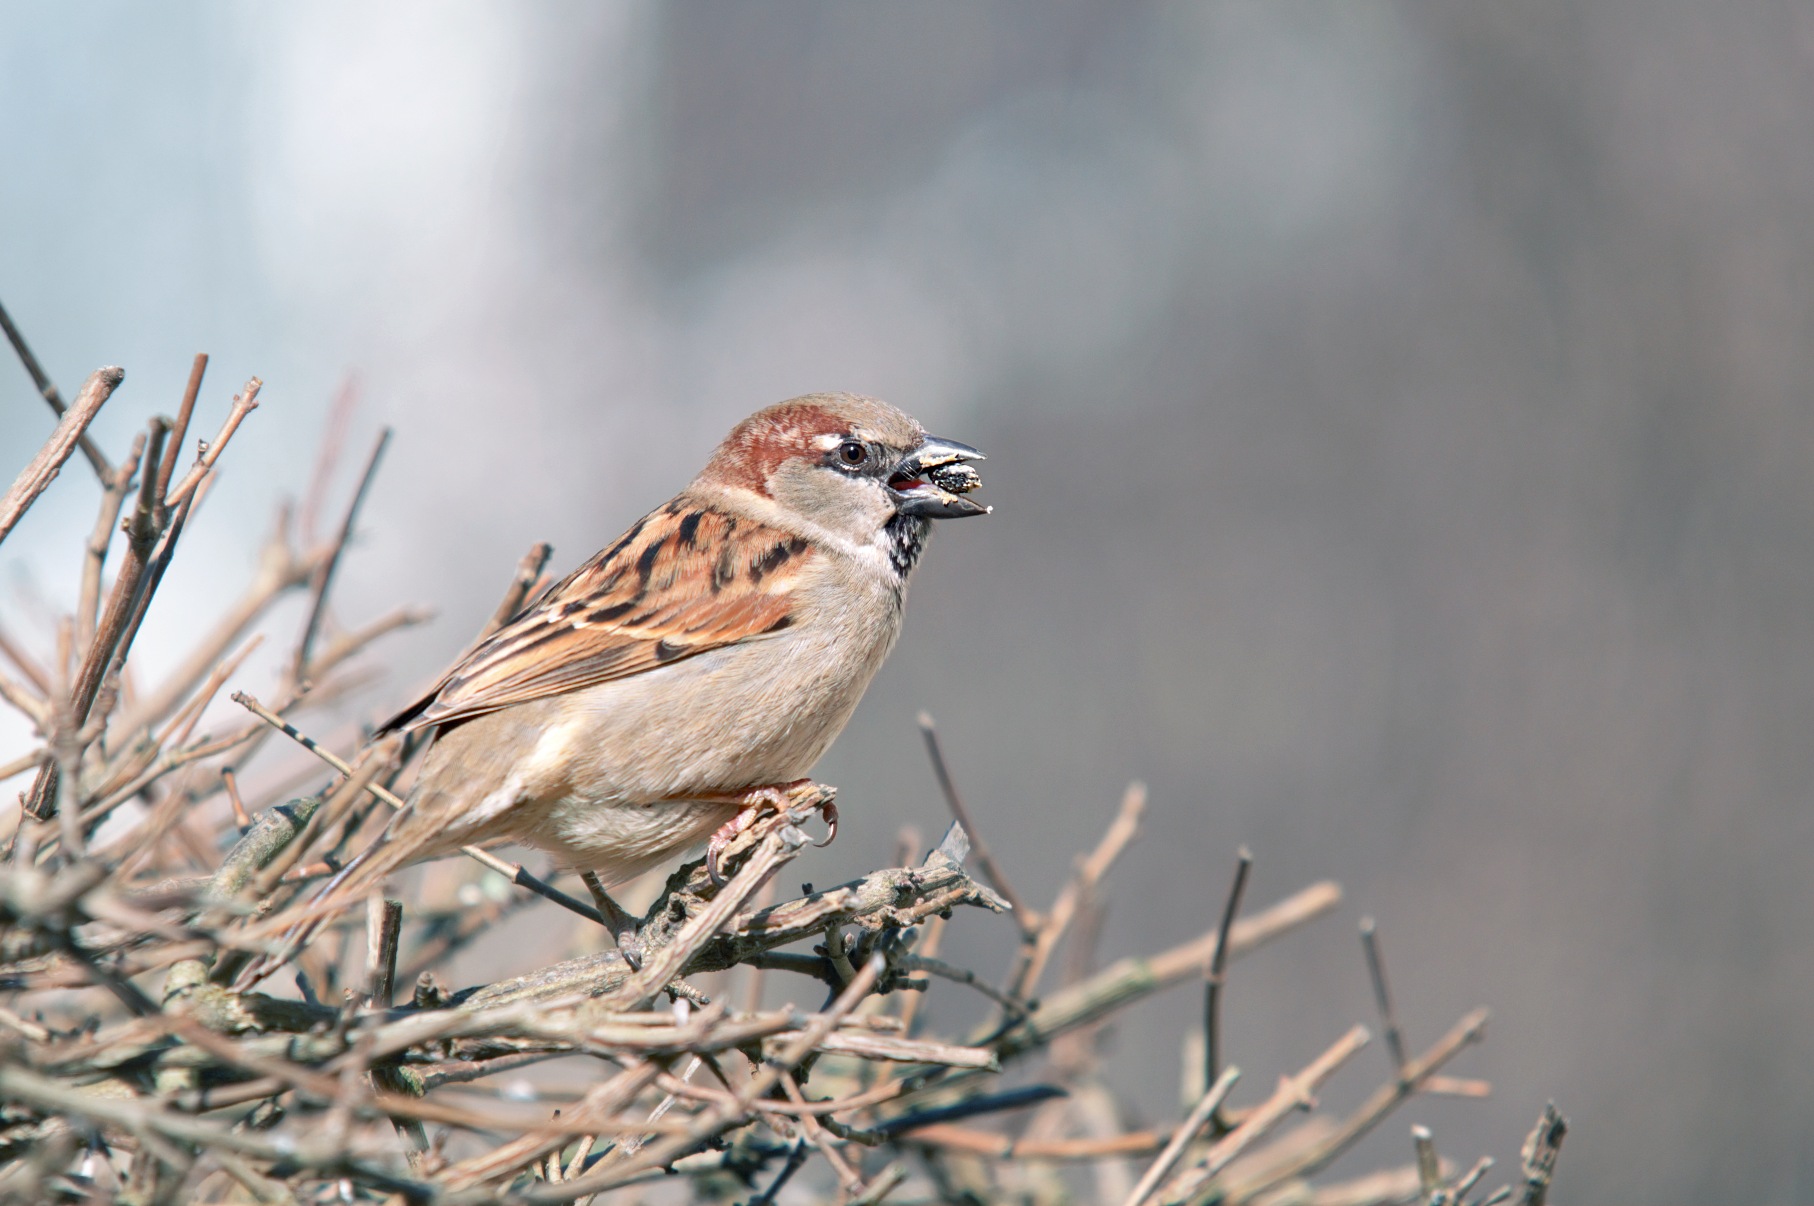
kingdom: Animalia
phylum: Chordata
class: Aves
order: Passeriformes
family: Passeridae
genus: Passer
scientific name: Passer domesticus
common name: Gråspurv
